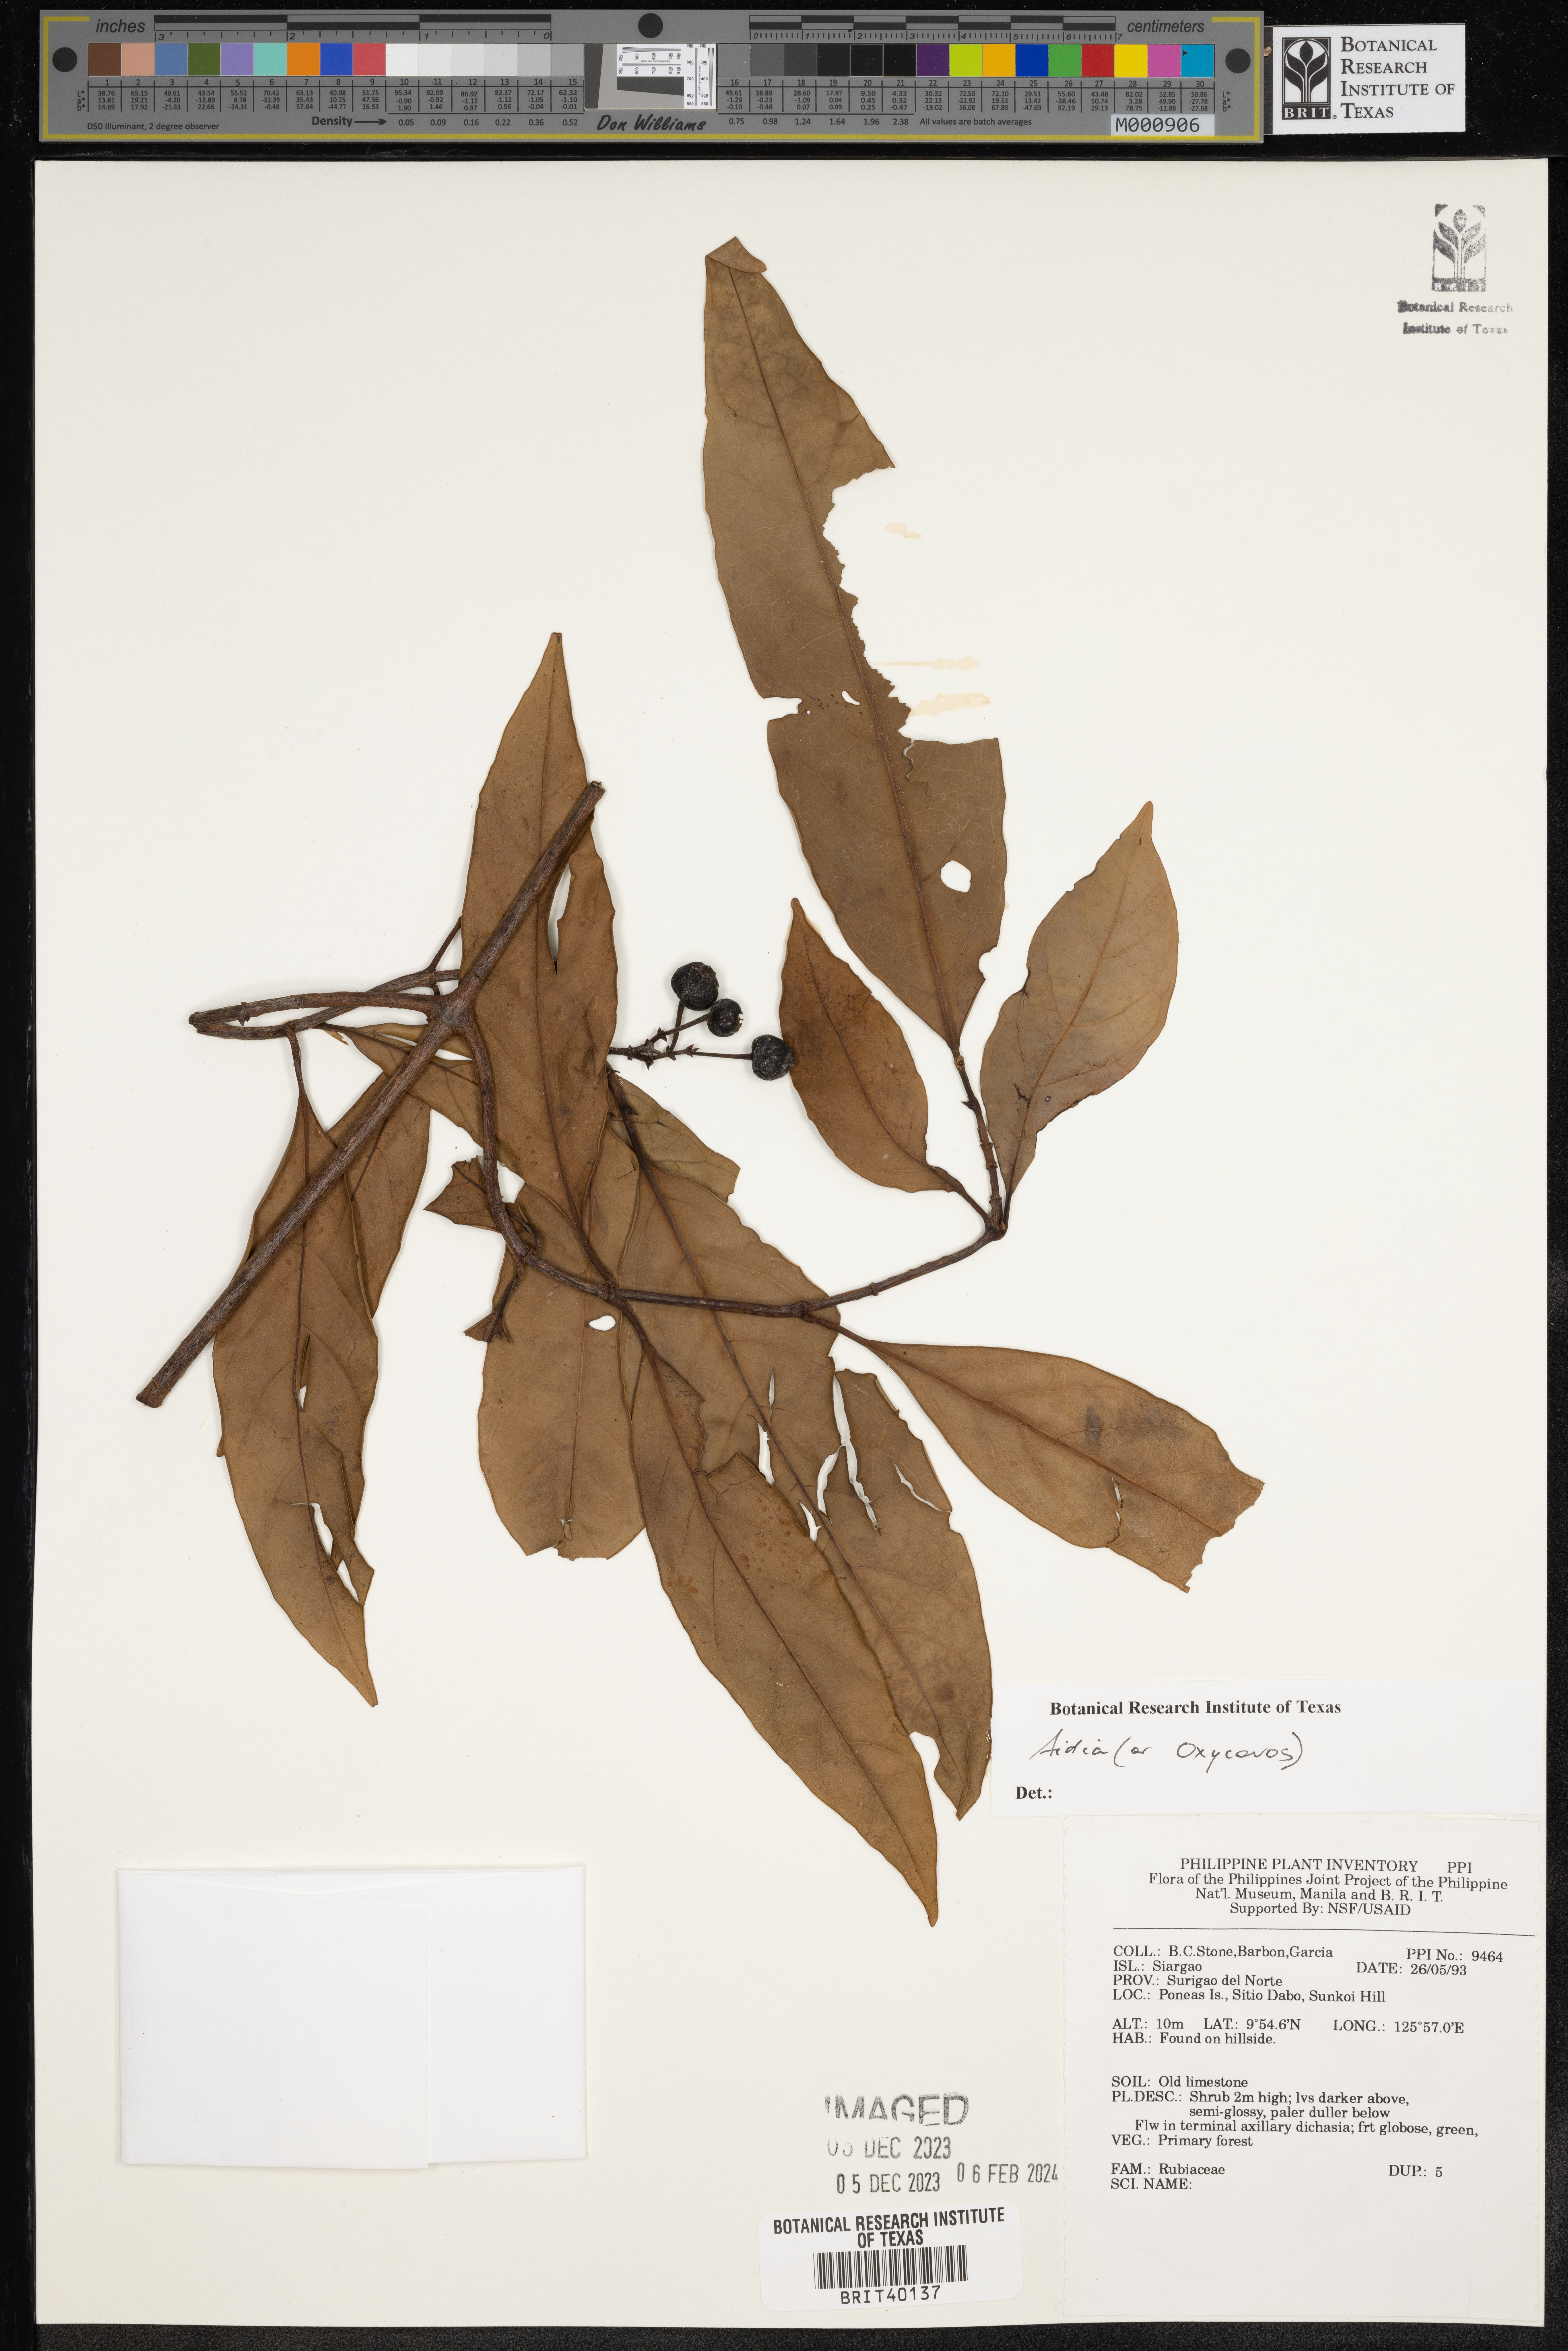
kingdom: Plantae
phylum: Tracheophyta
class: Magnoliopsida
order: Gentianales
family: Rubiaceae
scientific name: Rubiaceae
